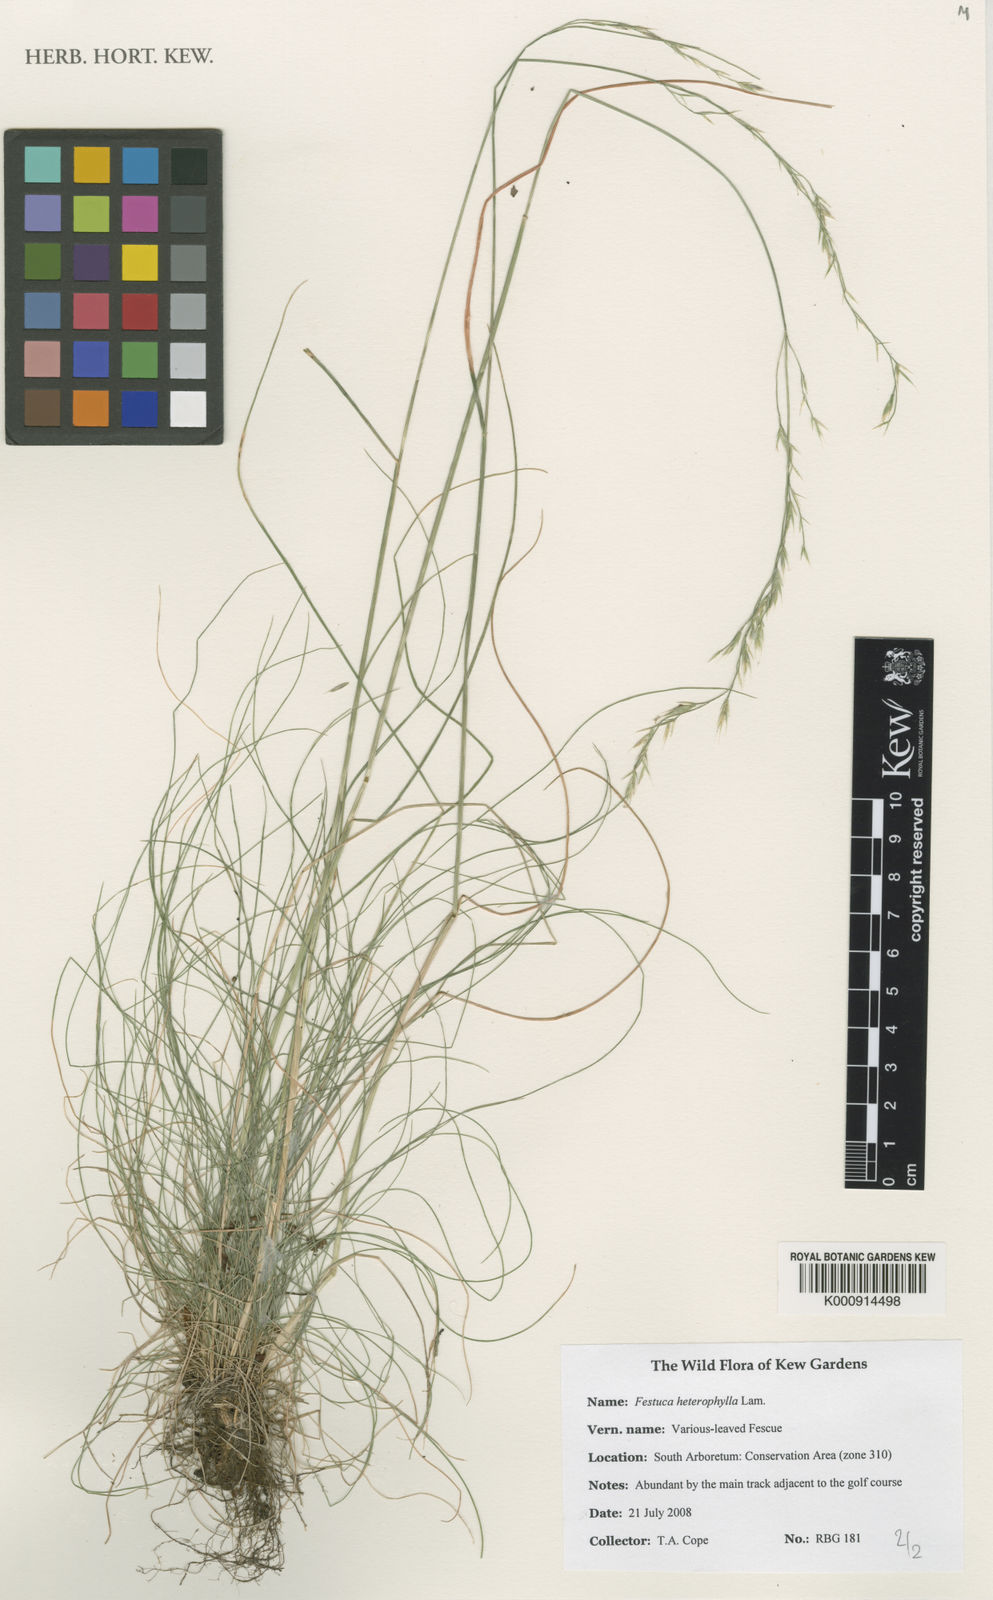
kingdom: Plantae
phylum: Tracheophyta
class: Liliopsida
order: Poales
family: Poaceae
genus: Festuca
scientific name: Festuca heterophylla
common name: Various-leaved fescue
